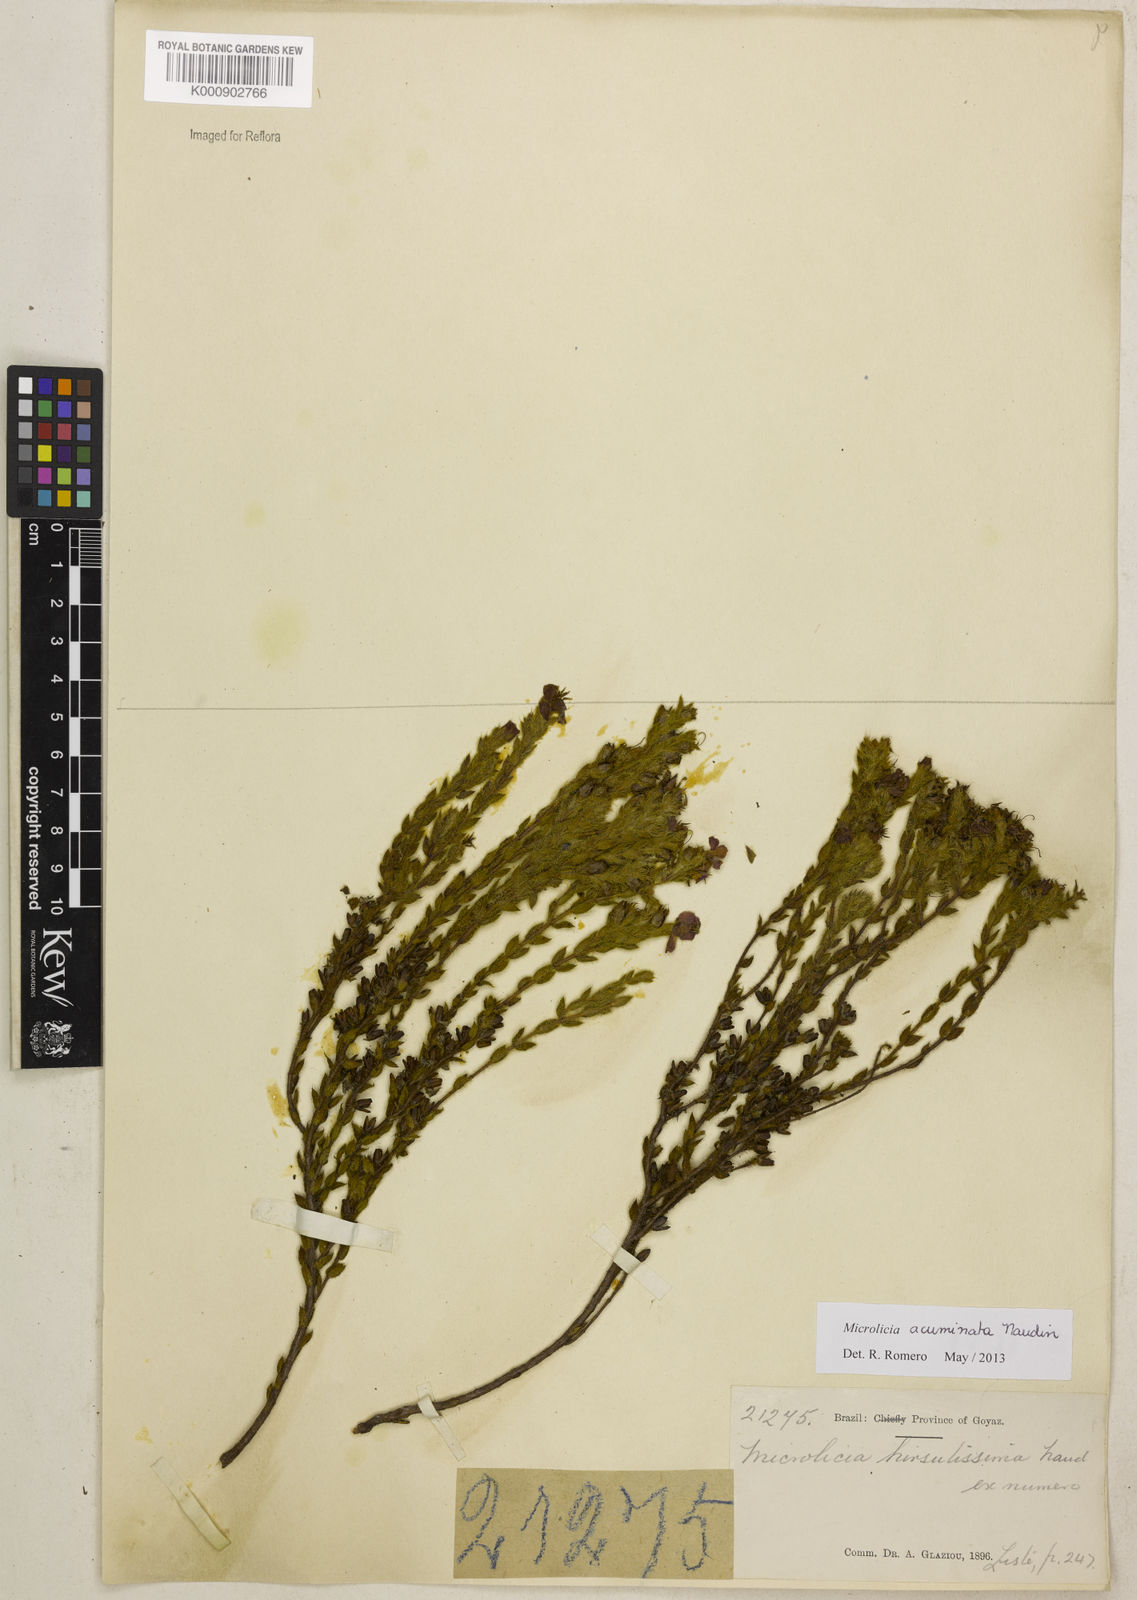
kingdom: Plantae
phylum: Tracheophyta
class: Magnoliopsida
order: Myrtales
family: Melastomataceae
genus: Microlicia
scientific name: Microlicia
